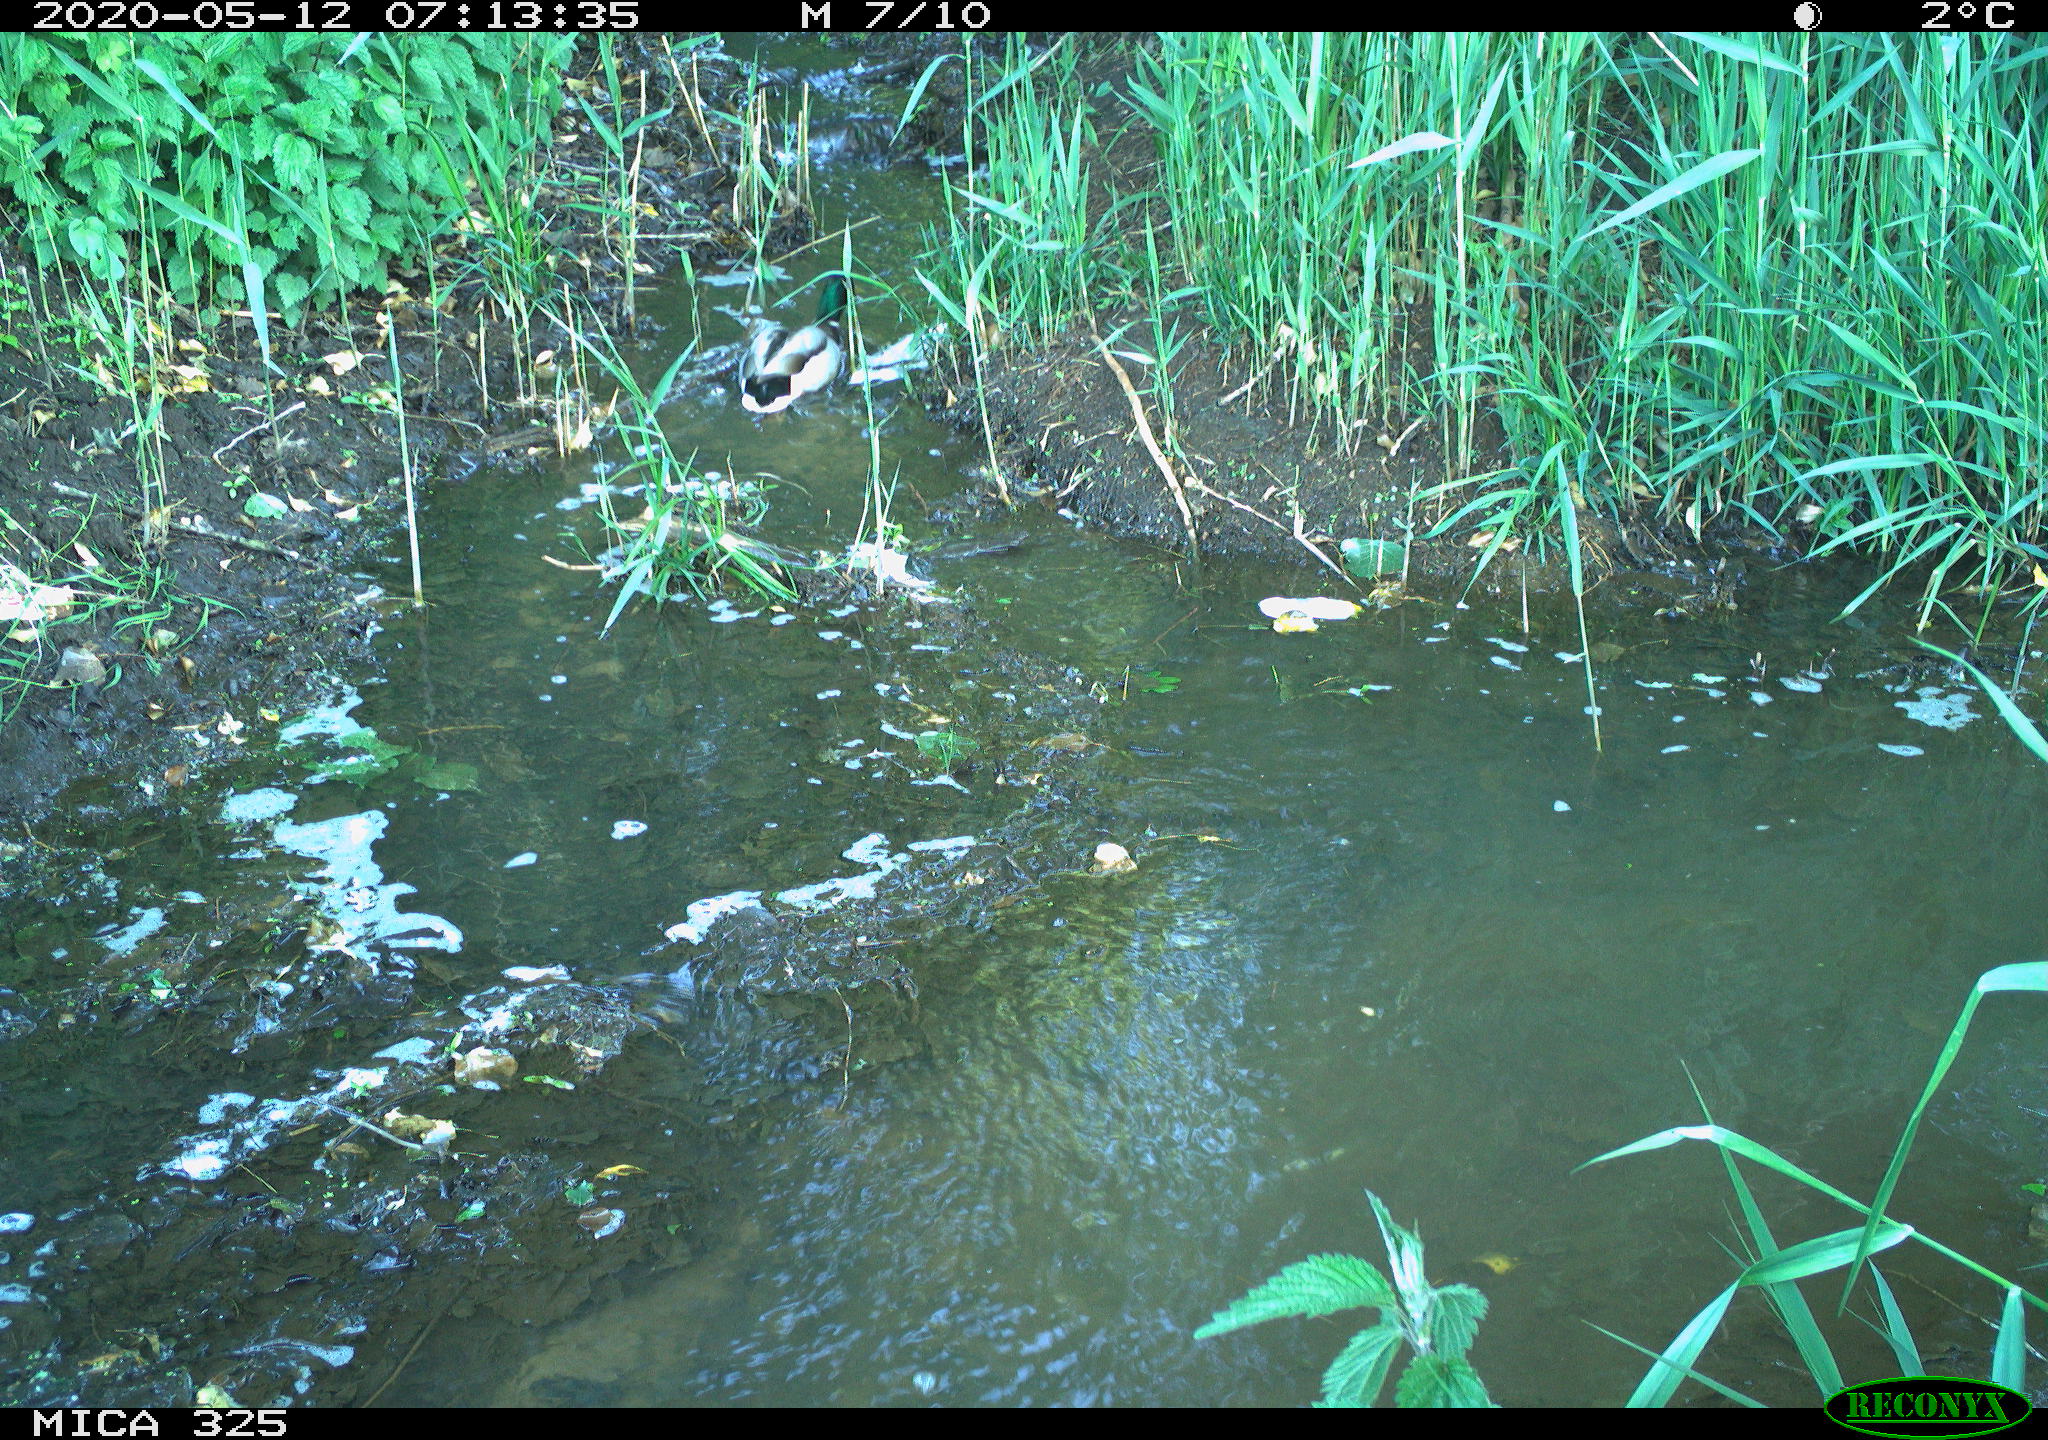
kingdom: Animalia
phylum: Chordata
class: Aves
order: Anseriformes
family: Anatidae
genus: Anas
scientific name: Anas platyrhynchos
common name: Mallard
